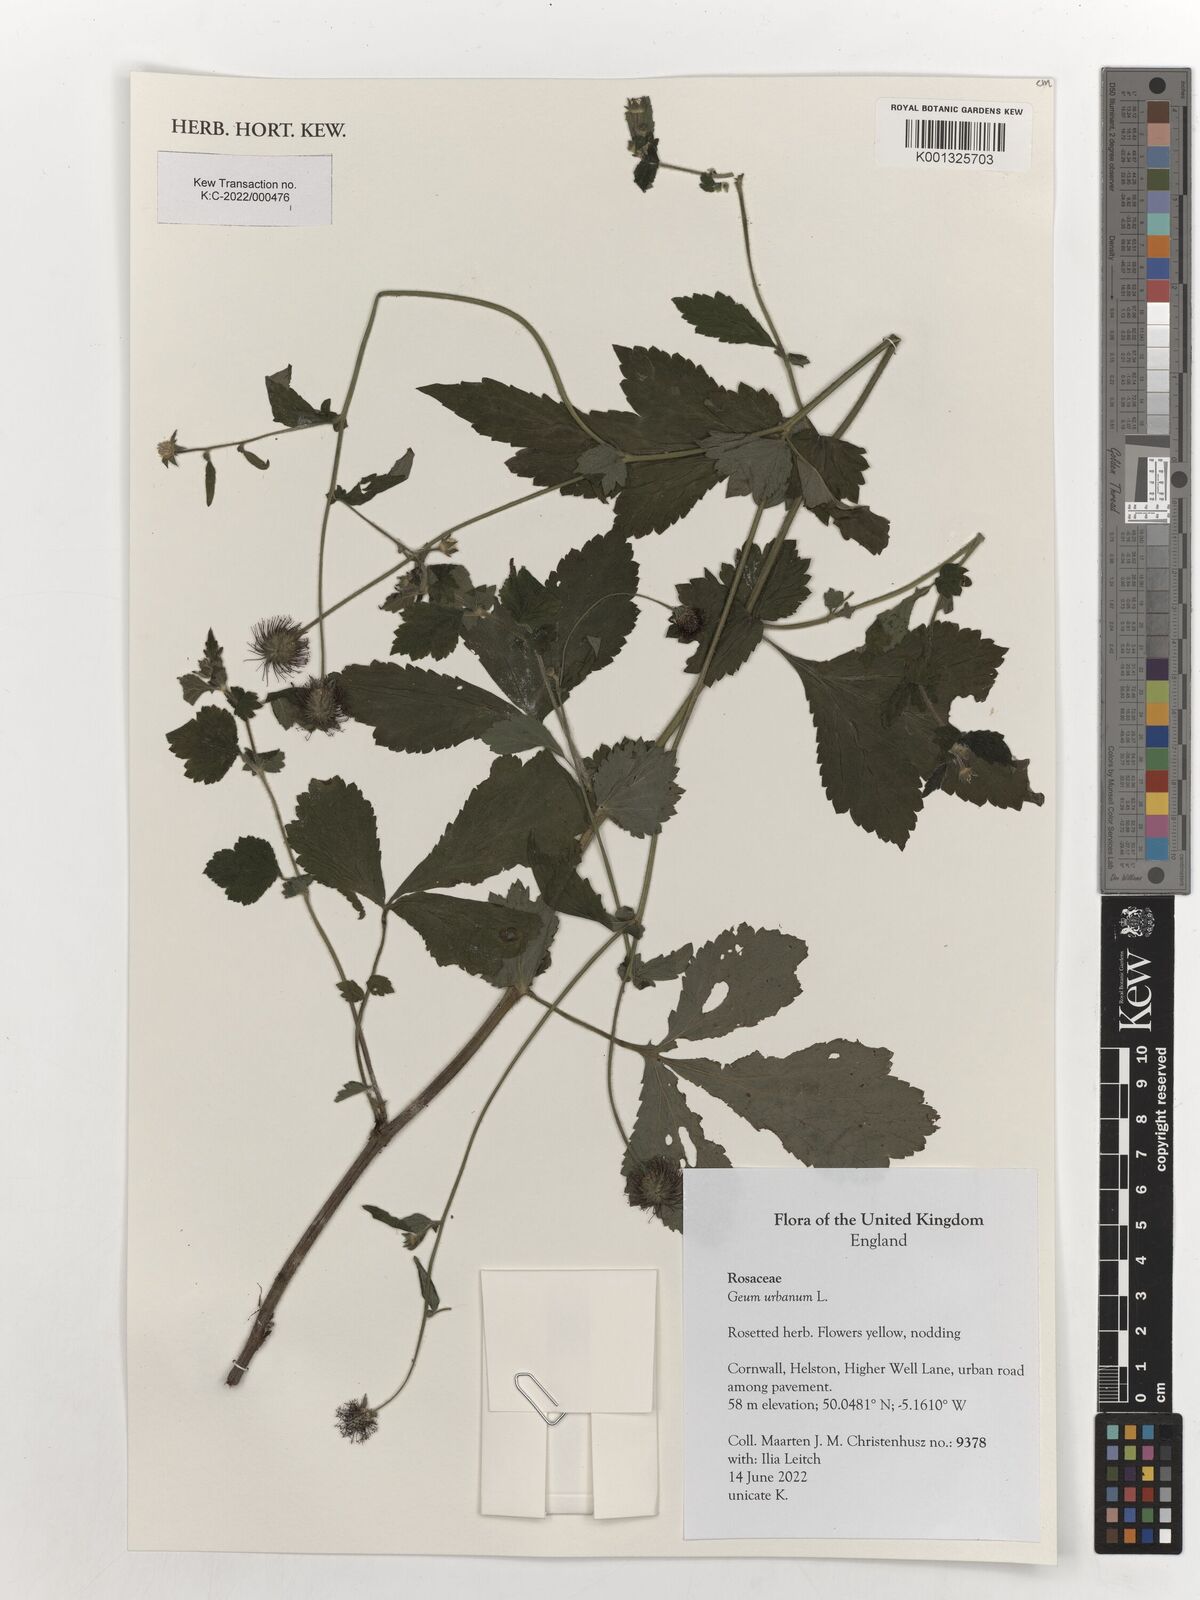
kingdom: Plantae
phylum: Tracheophyta
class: Magnoliopsida
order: Rosales
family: Rosaceae
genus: Geum
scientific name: Geum urbanum
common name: Wood avens
